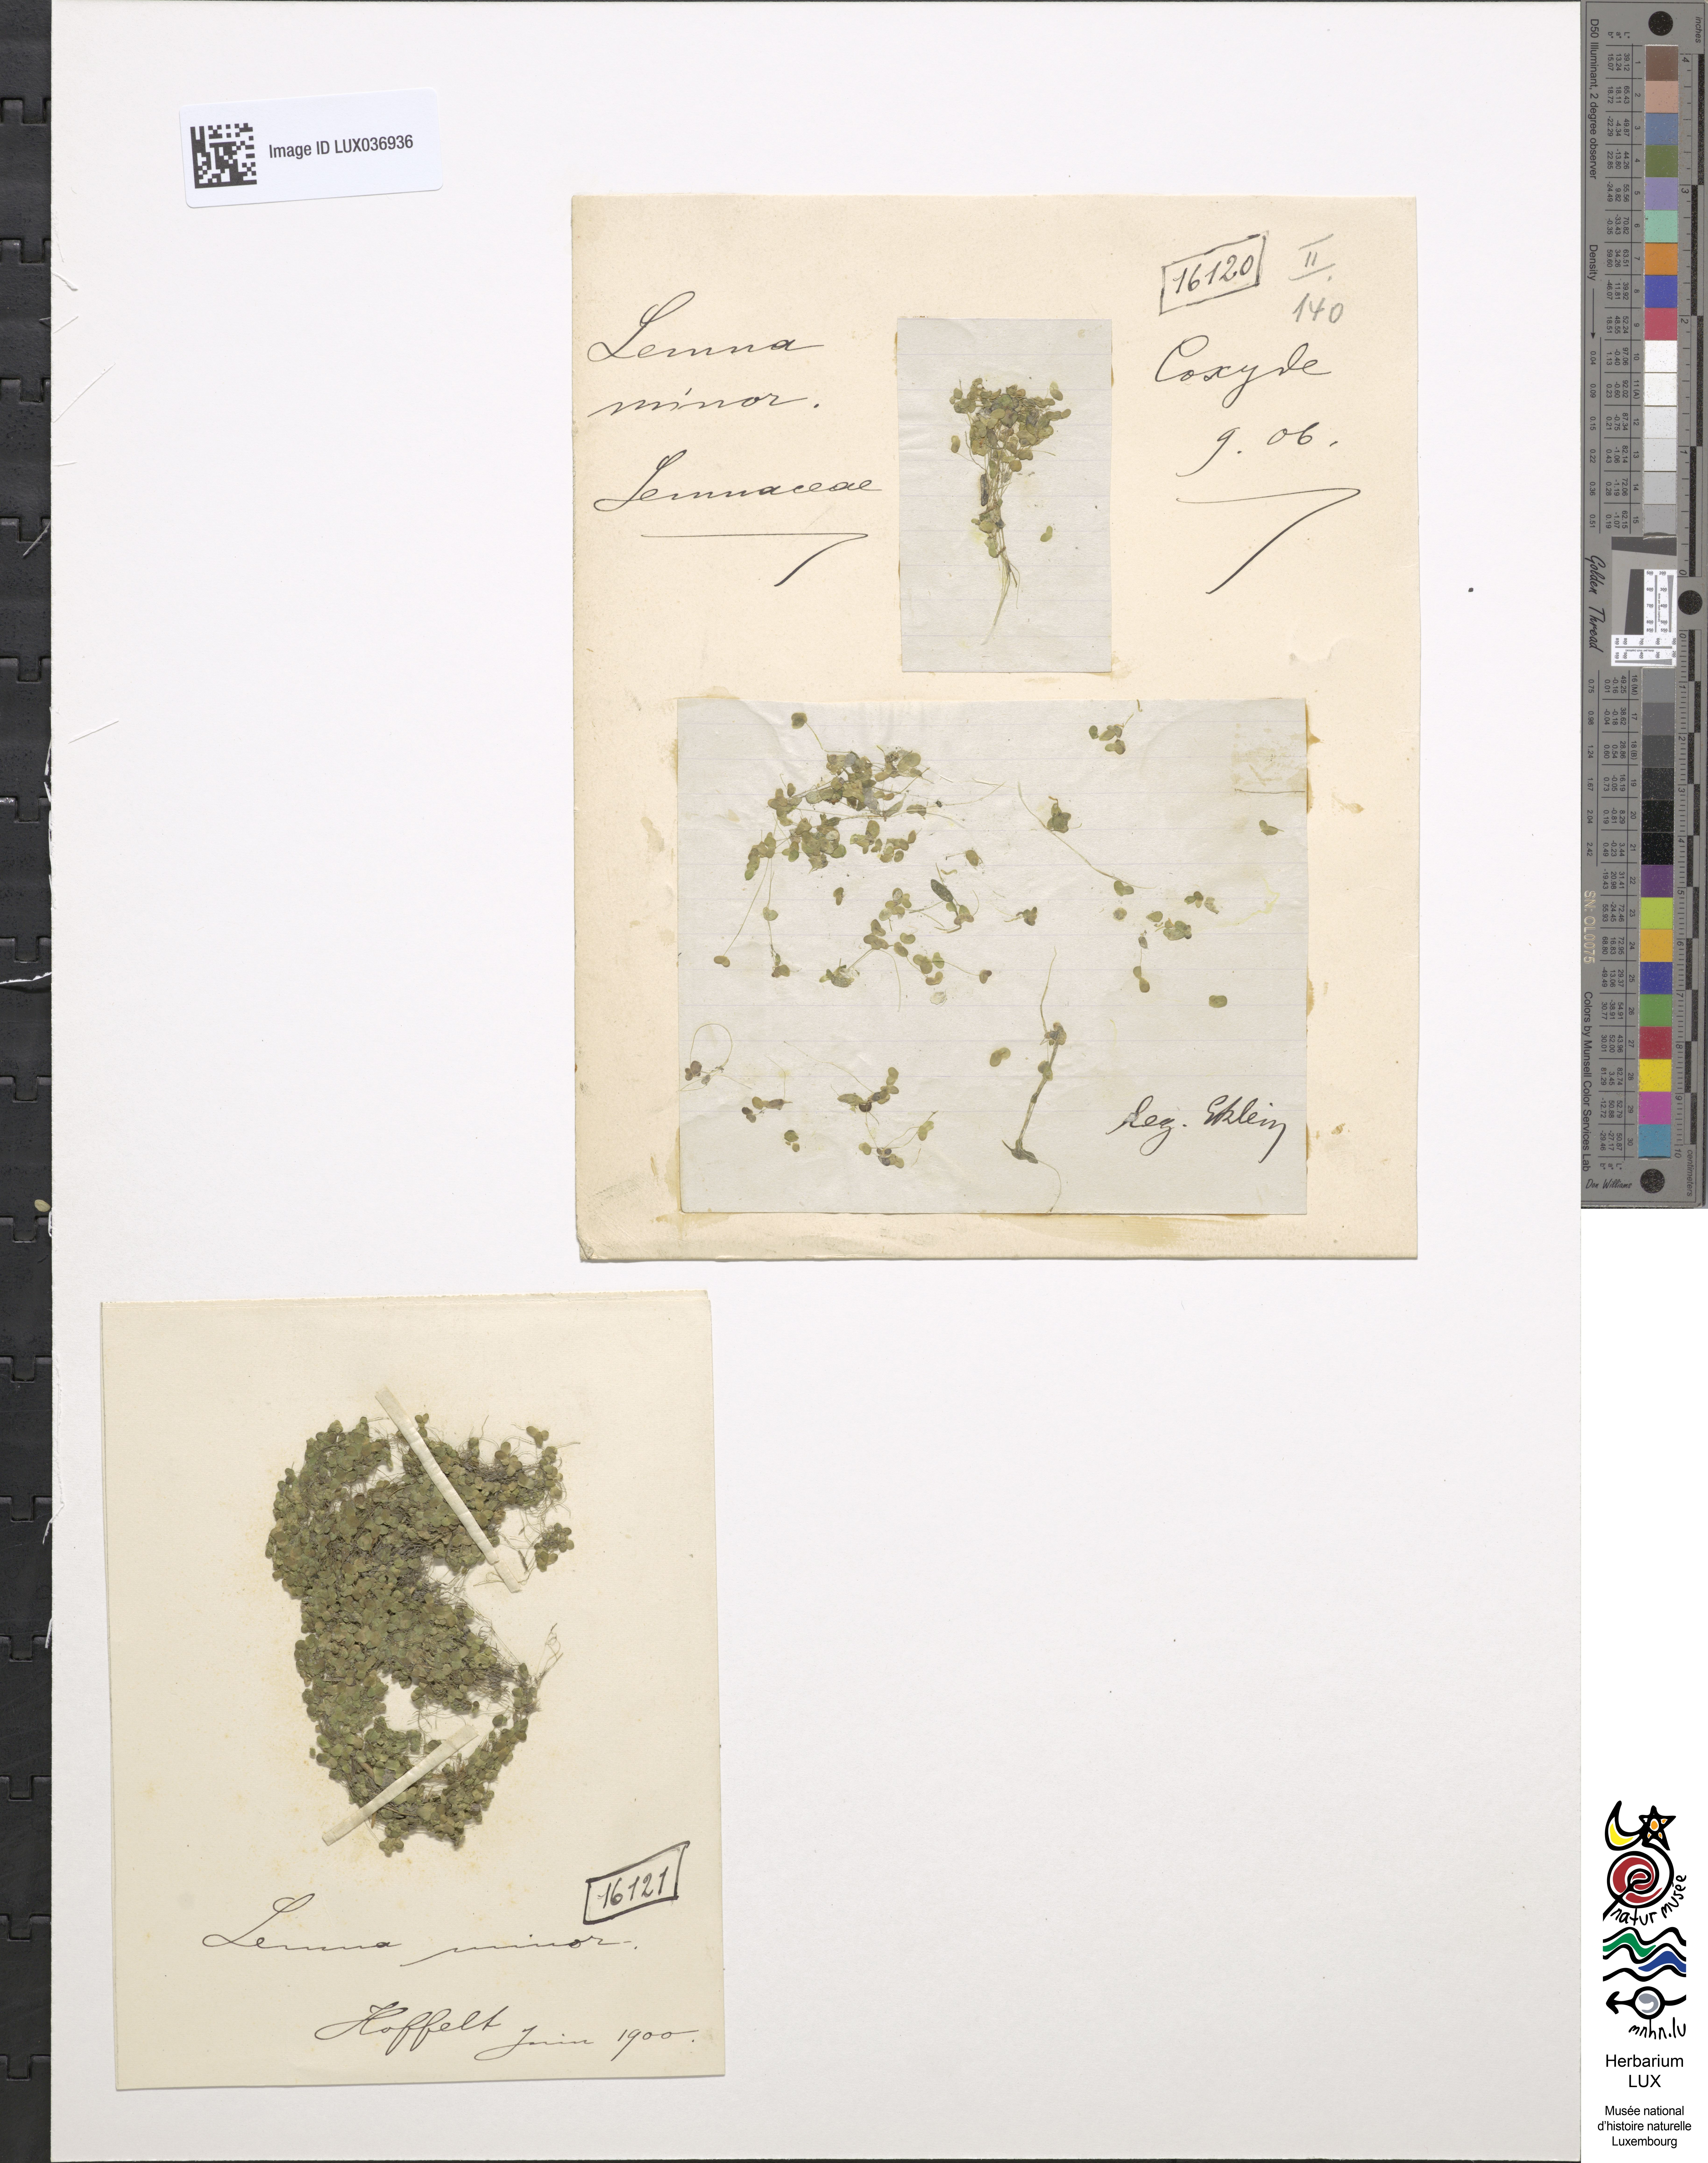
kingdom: Plantae
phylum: Tracheophyta
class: Liliopsida
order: Alismatales
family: Araceae
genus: Lemna
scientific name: Lemna minor
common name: Common duckweed
